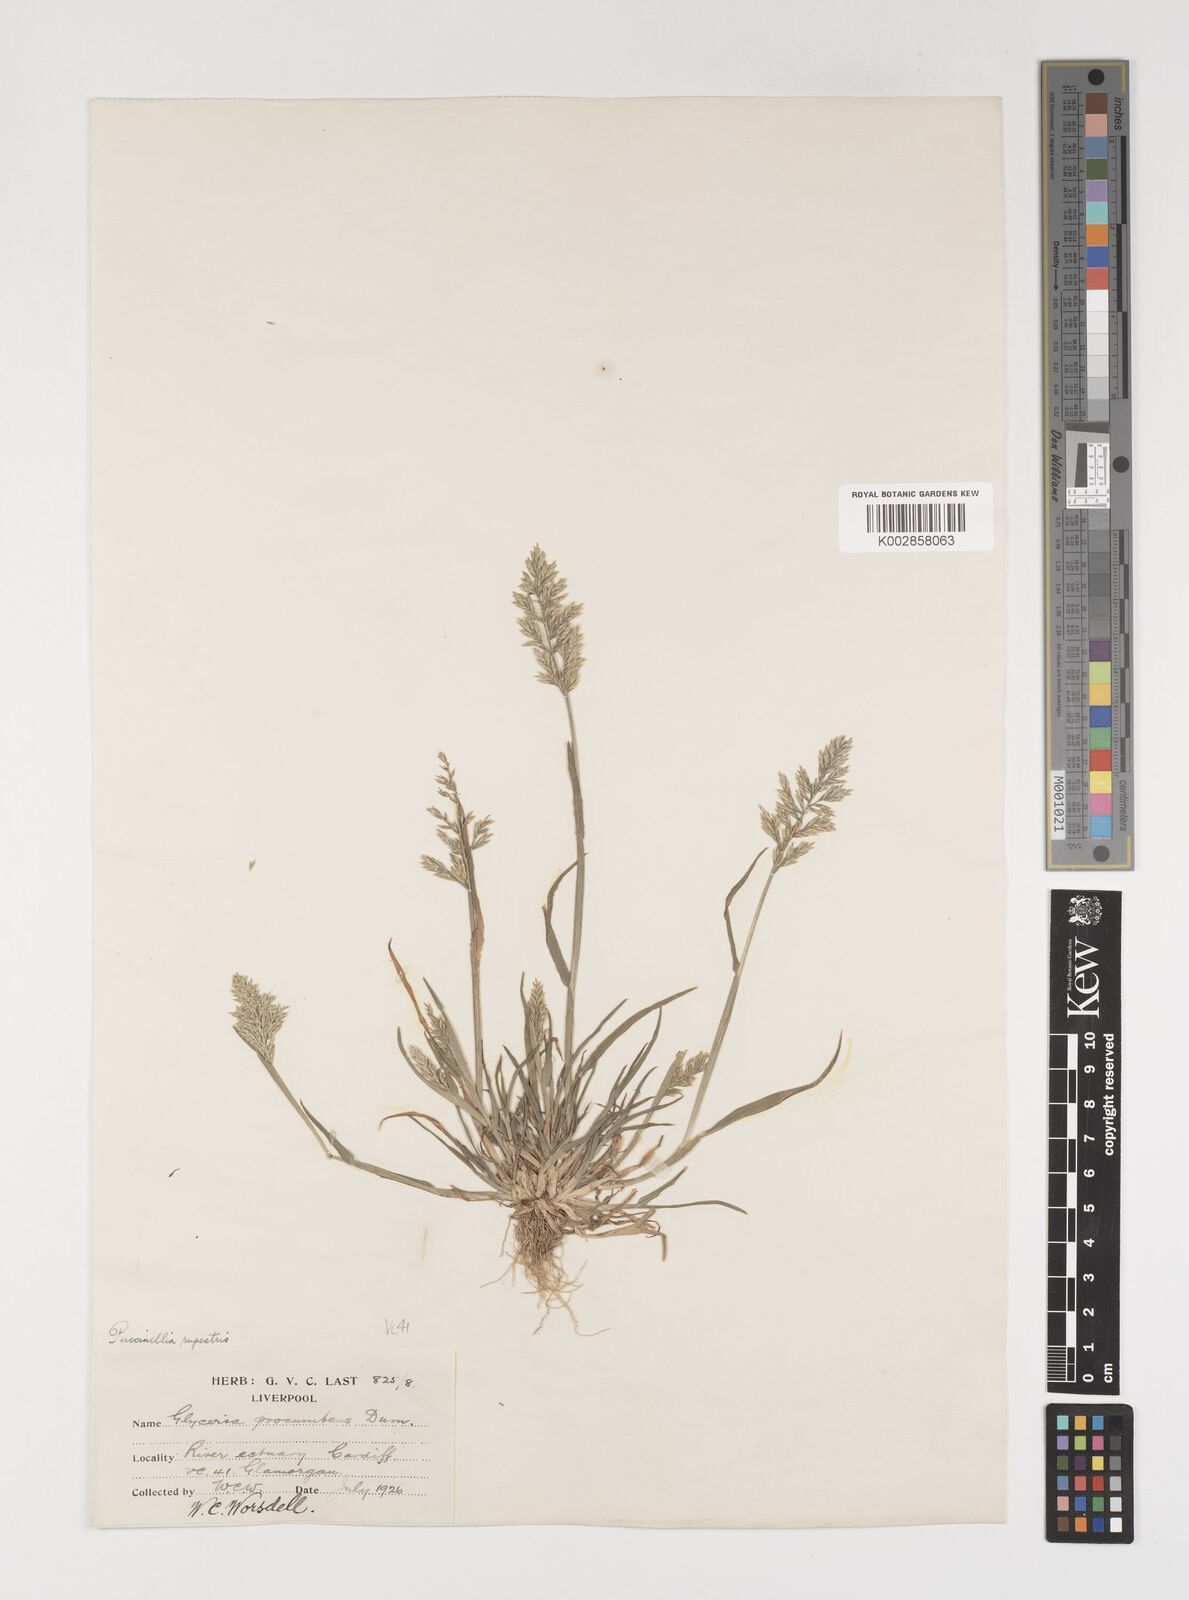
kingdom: Plantae
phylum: Tracheophyta
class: Liliopsida
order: Poales
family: Poaceae
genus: Puccinellia
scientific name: Puccinellia rupestris
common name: Stiff saltmarsh-grass
